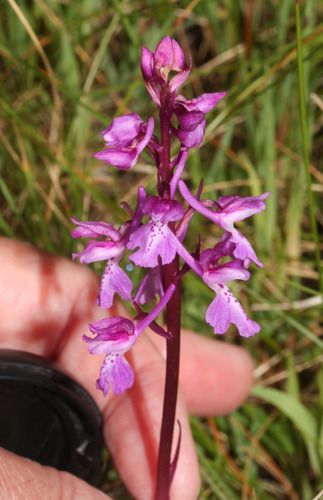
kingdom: Plantae
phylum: Tracheophyta
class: Liliopsida
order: Asparagales
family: Orchidaceae
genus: Orchis
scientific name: Orchis mascula
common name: Early-purple orchid
